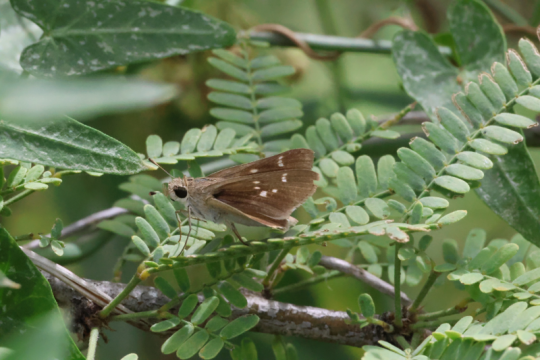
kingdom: Animalia
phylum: Arthropoda
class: Insecta
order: Lepidoptera
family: Hesperiidae
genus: Lerodea
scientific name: Lerodea eufala
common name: Eufala Skipper
